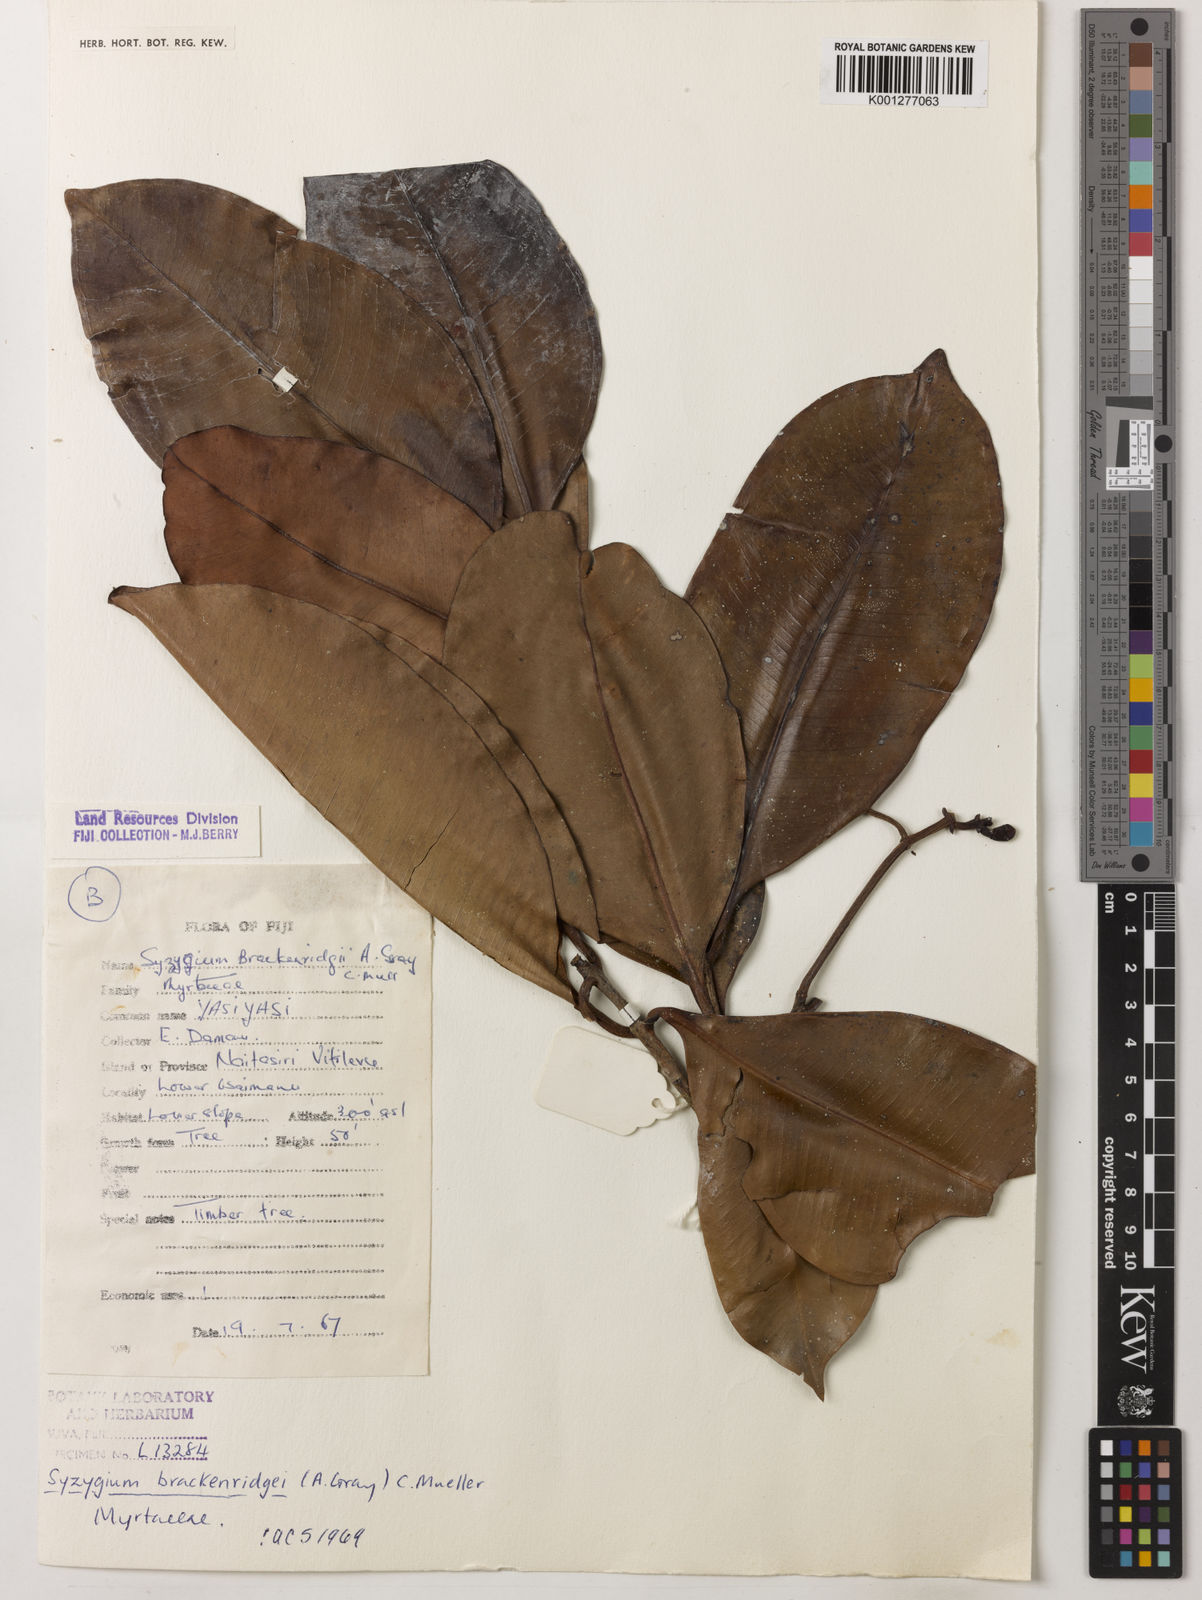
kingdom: Plantae
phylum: Tracheophyta
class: Magnoliopsida
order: Myrtales
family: Myrtaceae
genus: Syzygium
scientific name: Syzygium
